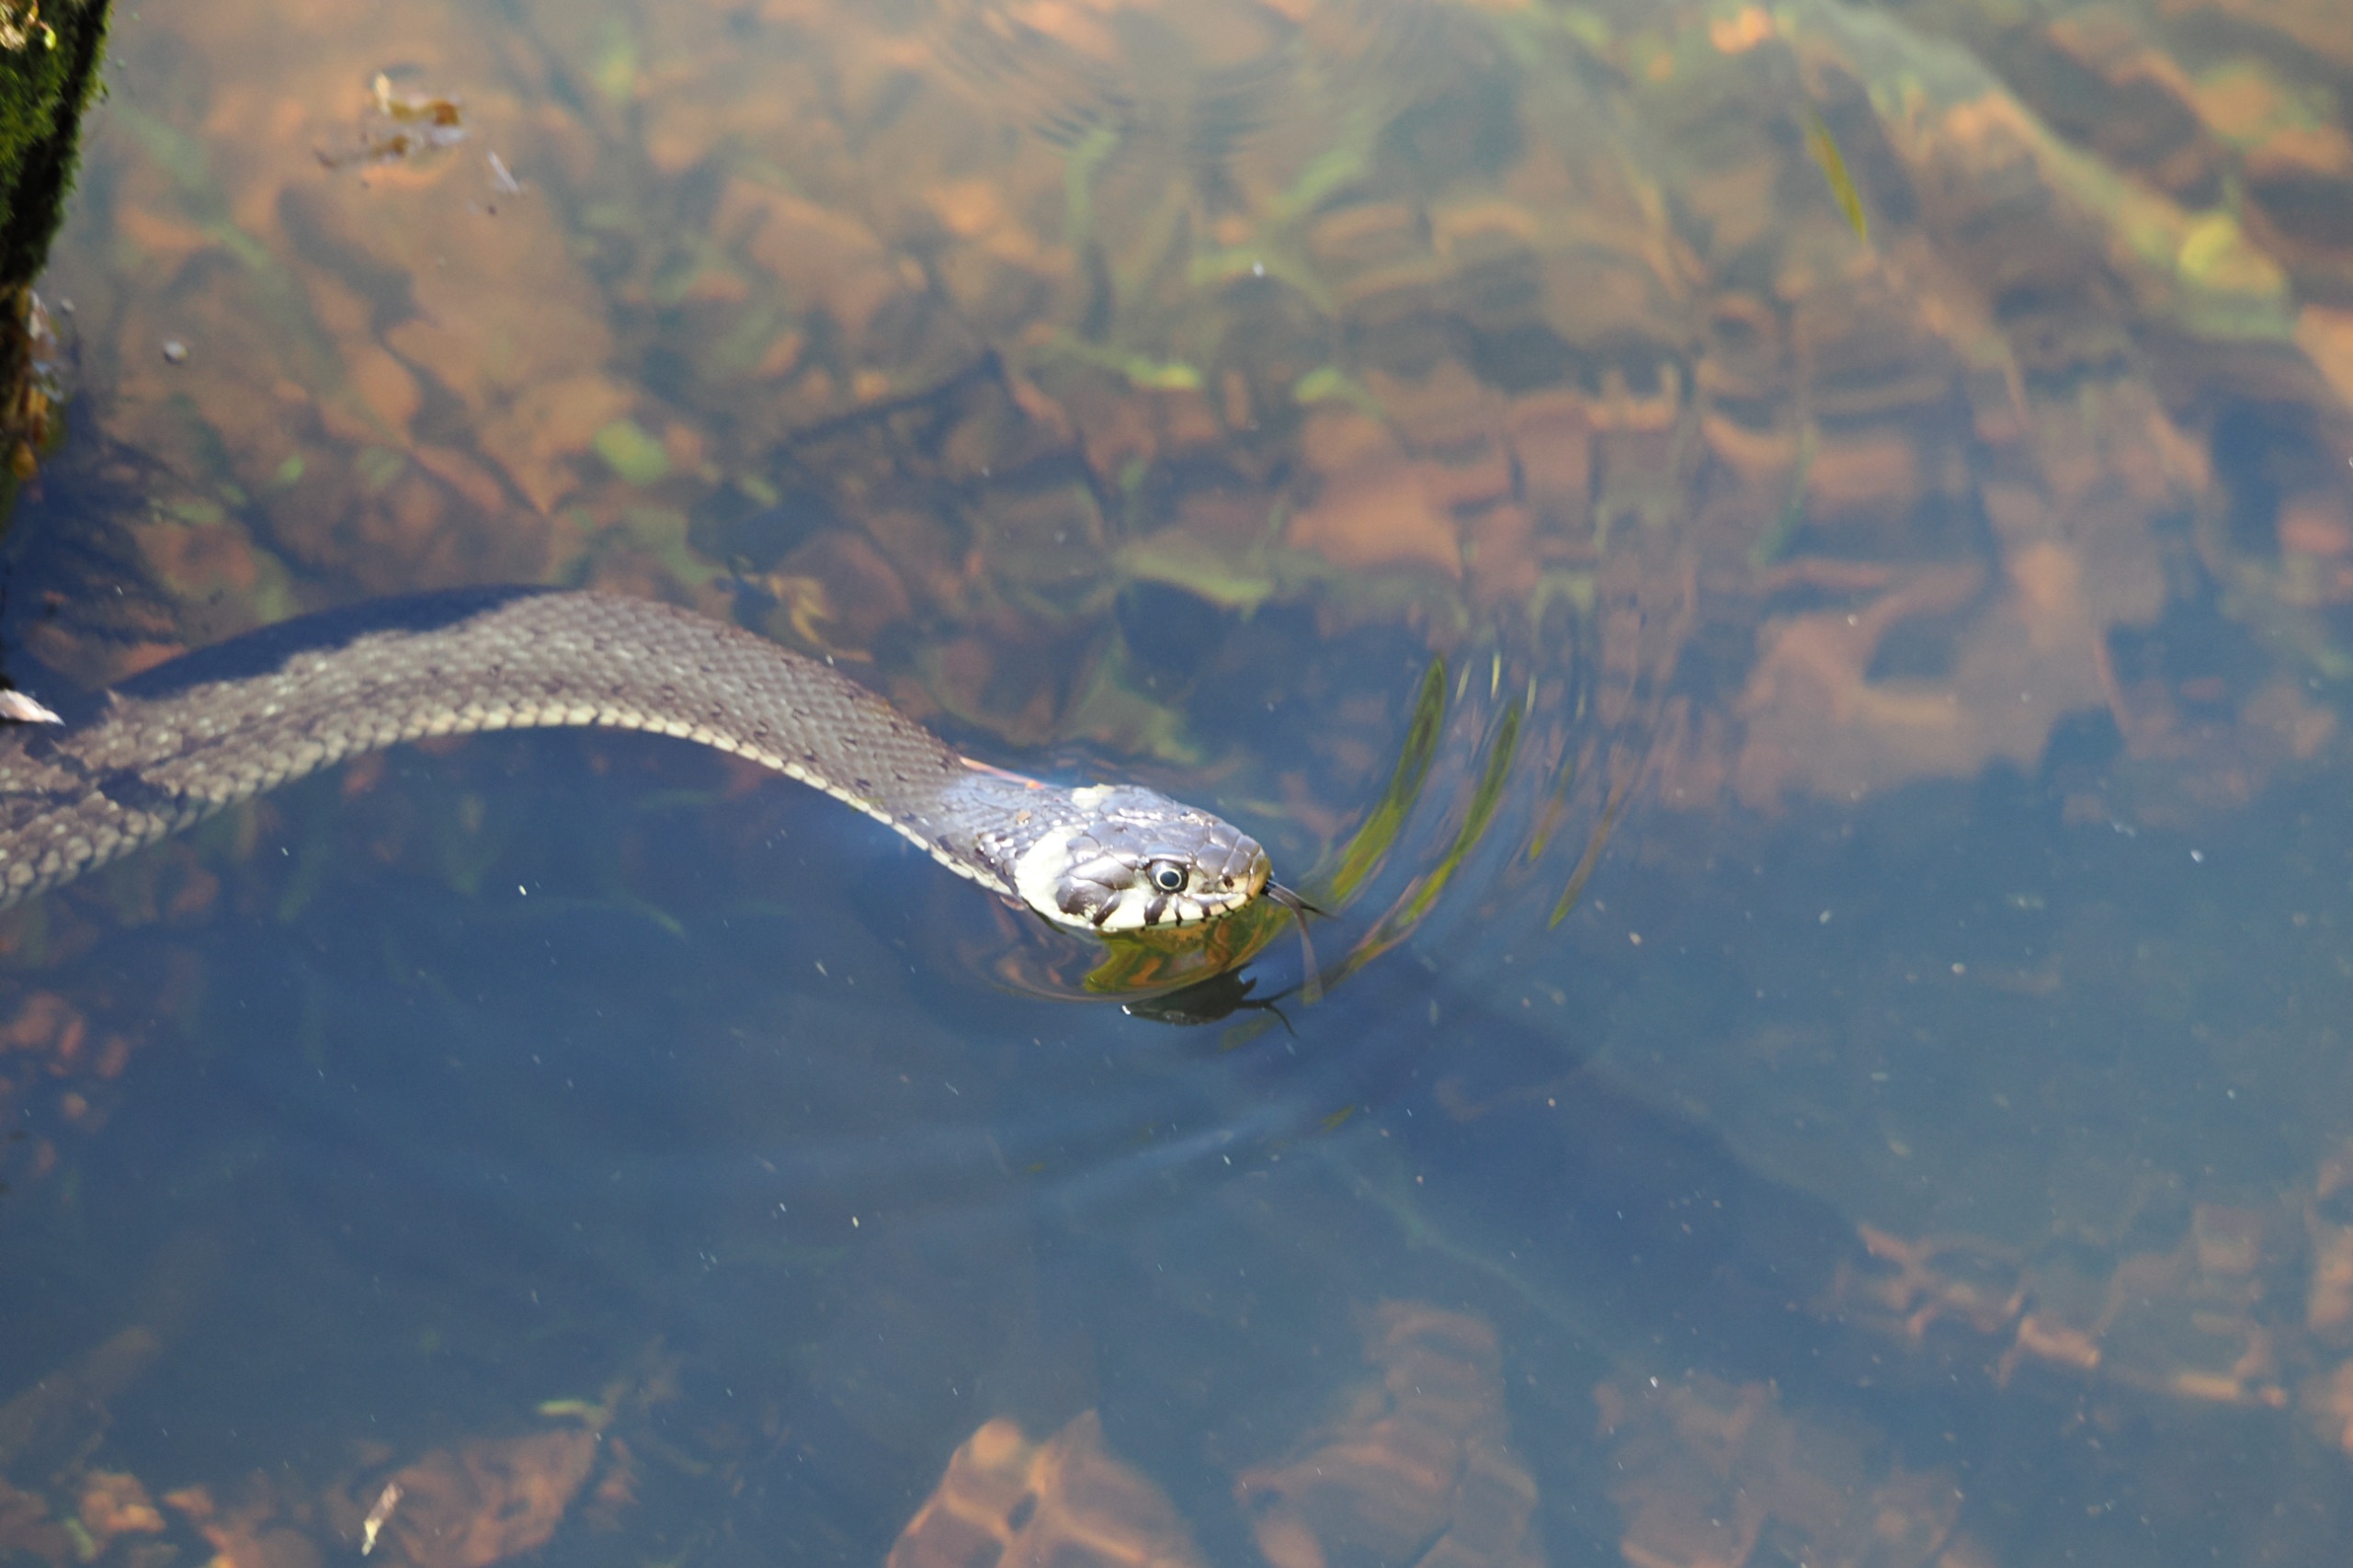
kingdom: Animalia
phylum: Chordata
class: Squamata
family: Colubridae
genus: Natrix
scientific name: Natrix natrix
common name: Snog
